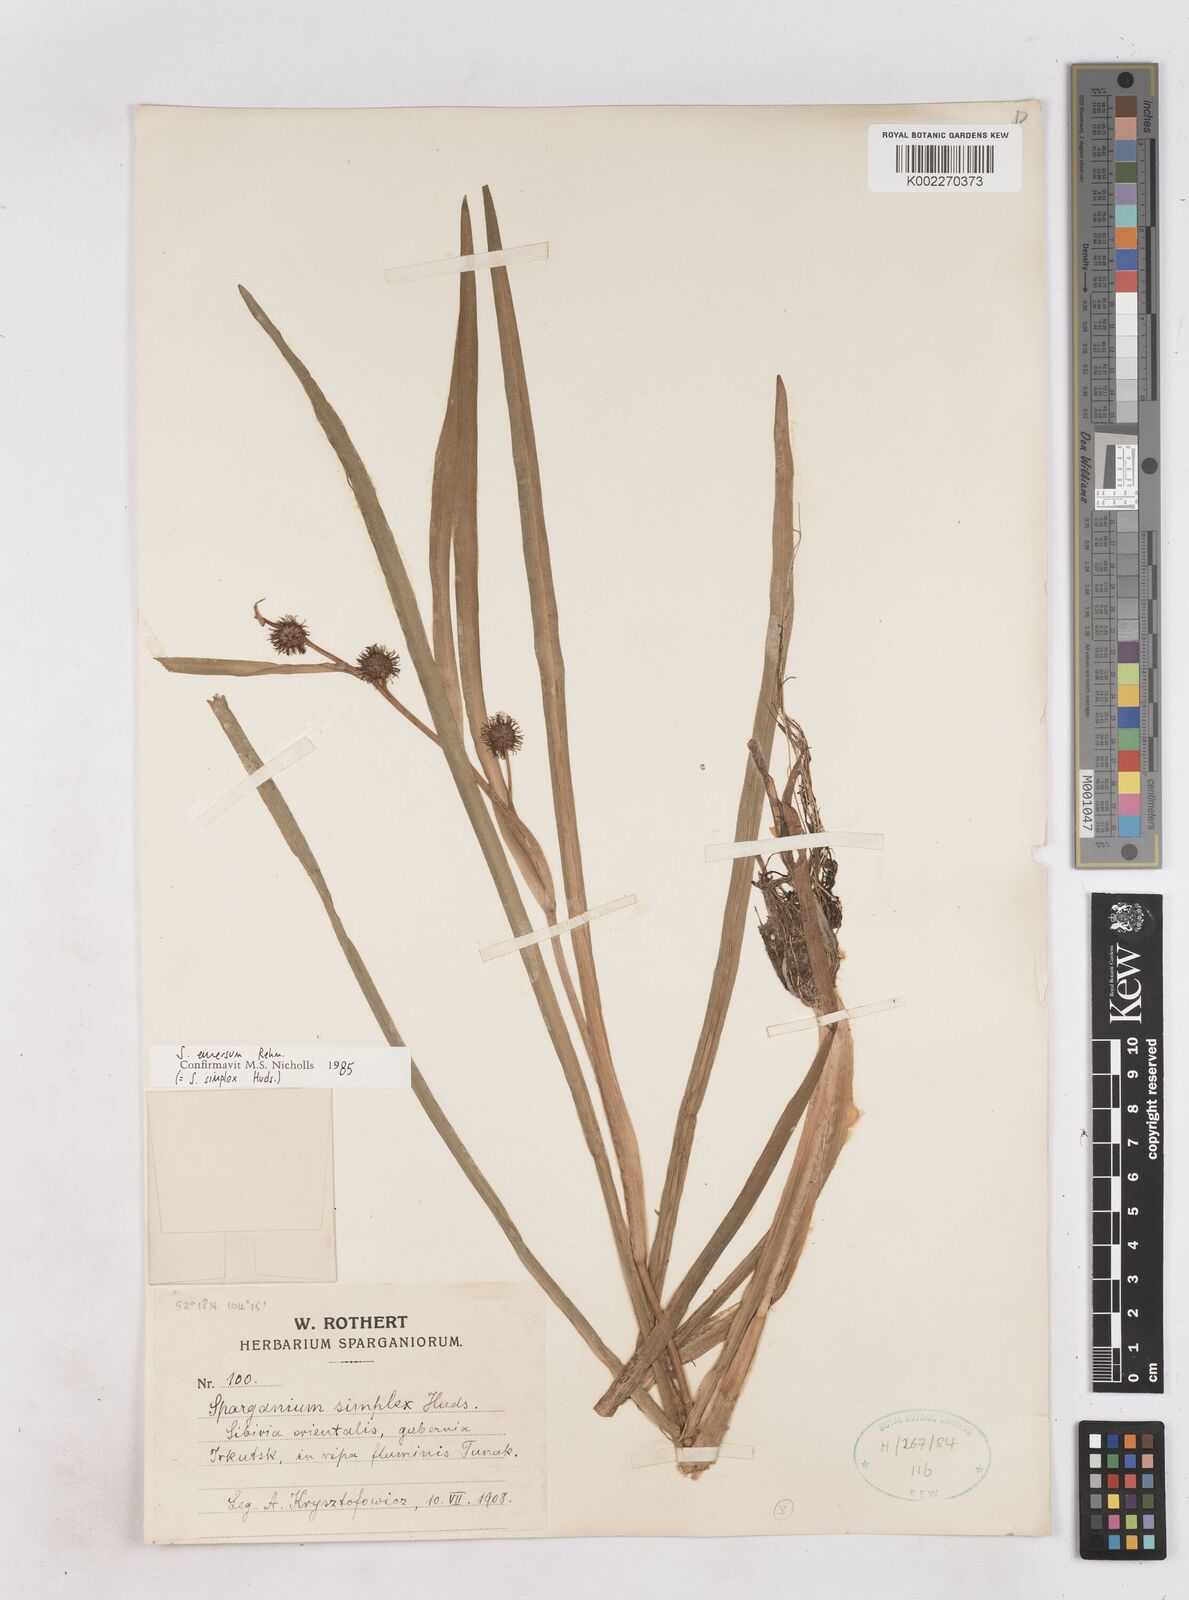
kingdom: Plantae
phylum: Tracheophyta
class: Liliopsida
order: Poales
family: Typhaceae
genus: Sparganium
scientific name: Sparganium emersum
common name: Unbranched bur-reed
